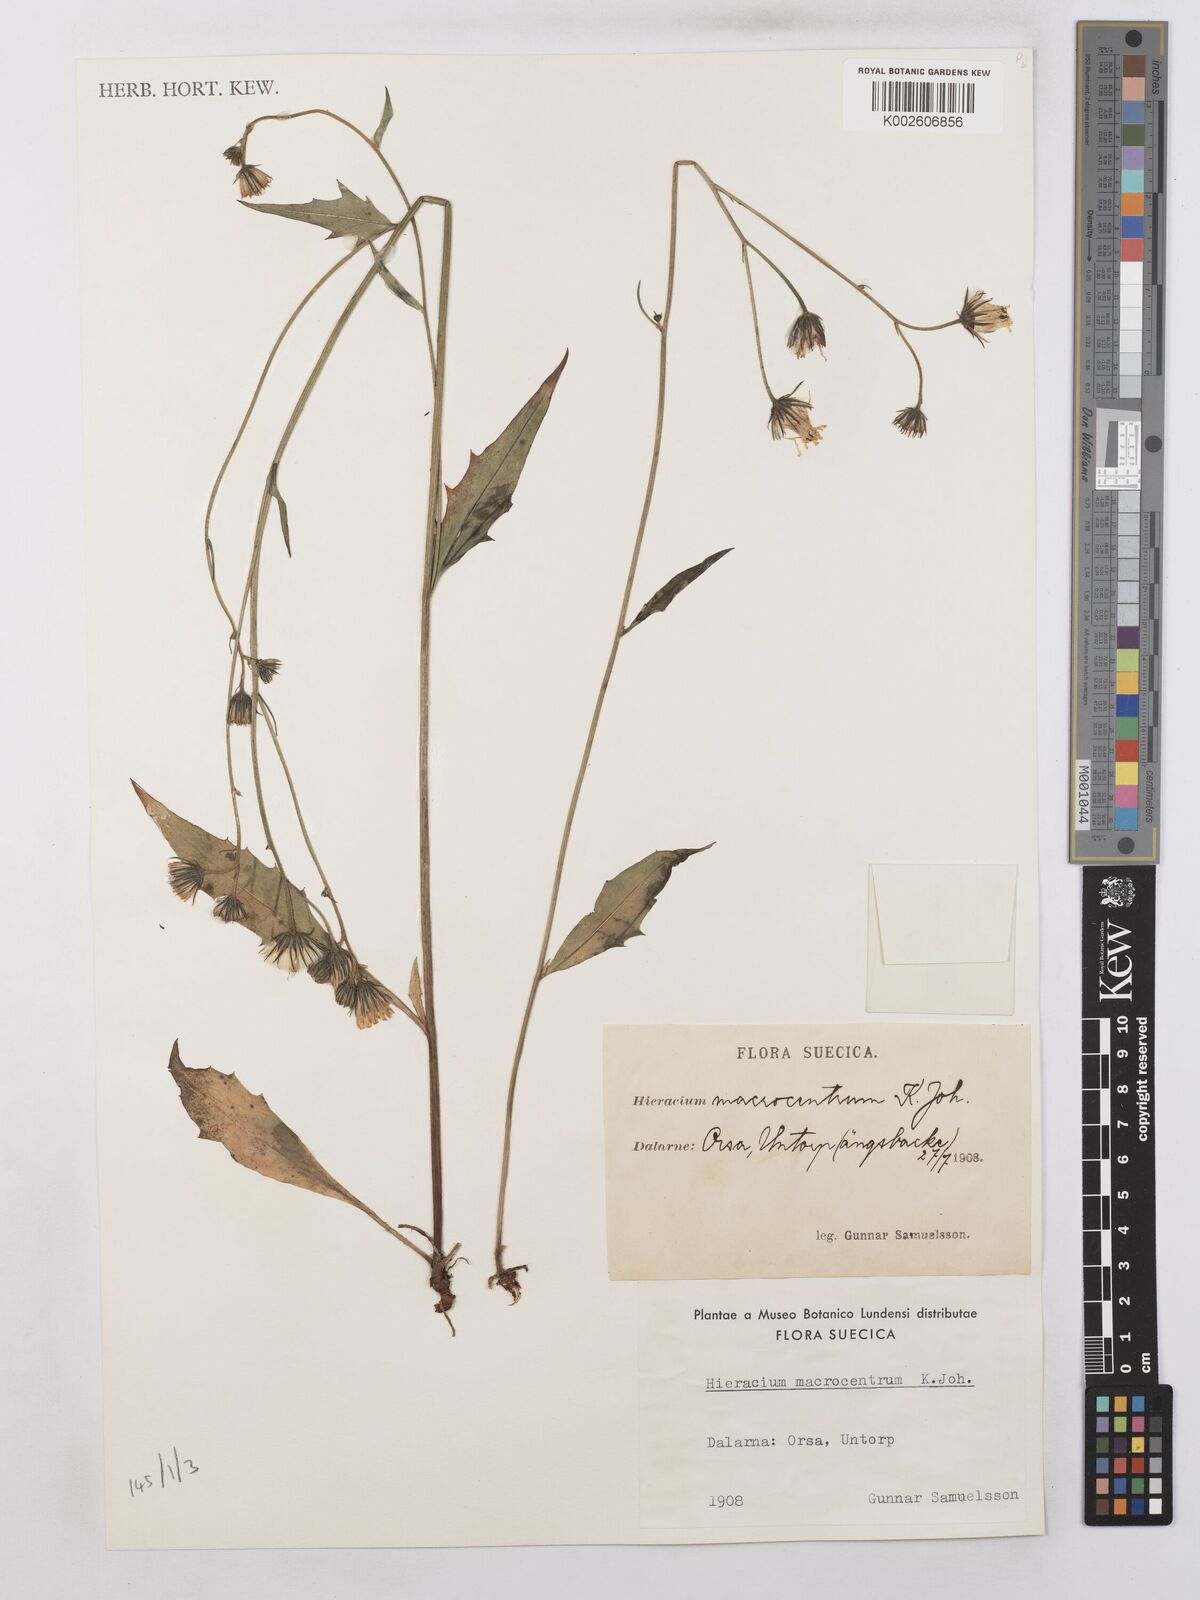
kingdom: Plantae
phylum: Tracheophyta
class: Magnoliopsida
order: Asterales
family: Asteraceae
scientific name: Asteraceae
